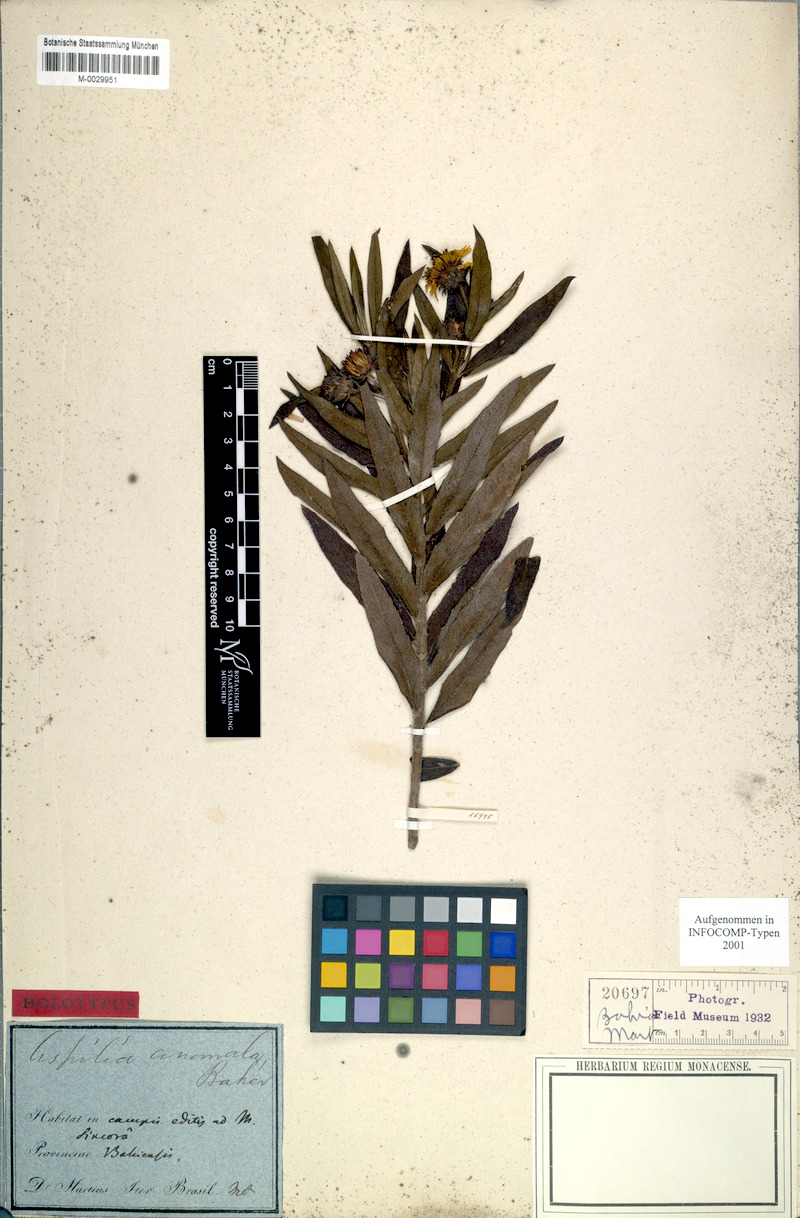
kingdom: Plantae
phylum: Tracheophyta
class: Magnoliopsida
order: Asterales
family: Asteraceae
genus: Wedelia
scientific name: Wedelia squarrosa
